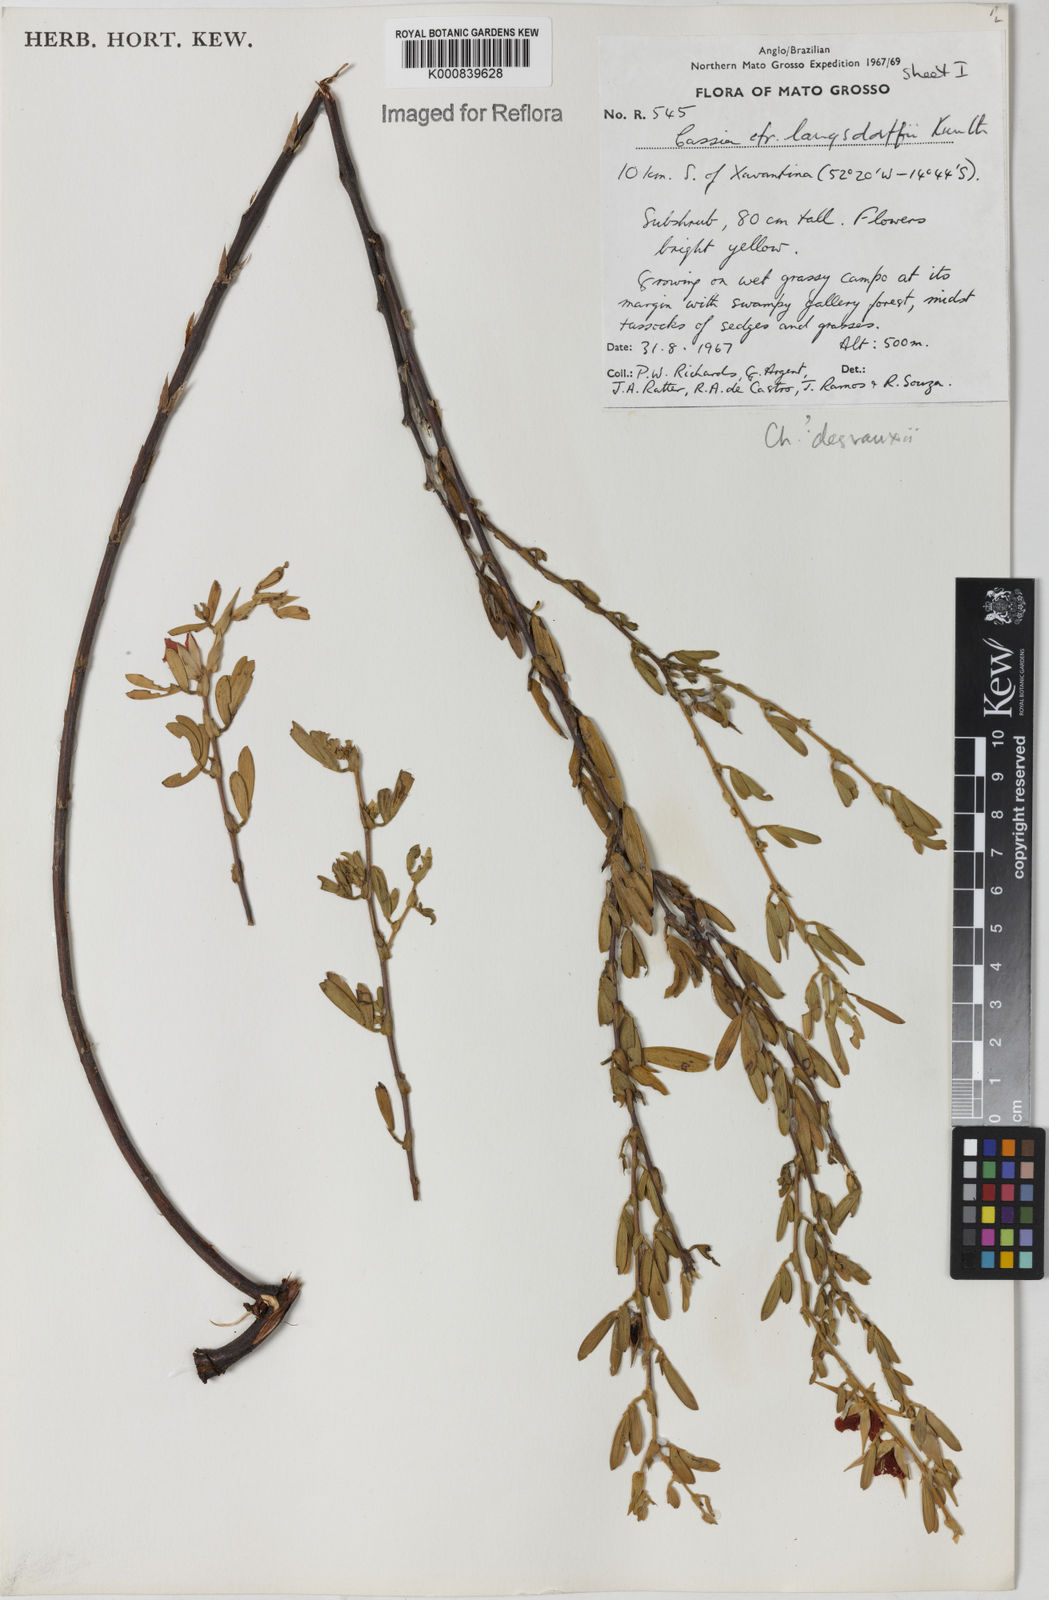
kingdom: Plantae
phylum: Tracheophyta
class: Magnoliopsida
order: Fabales
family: Fabaceae
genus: Chamaecrista
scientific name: Chamaecrista desvauxii
